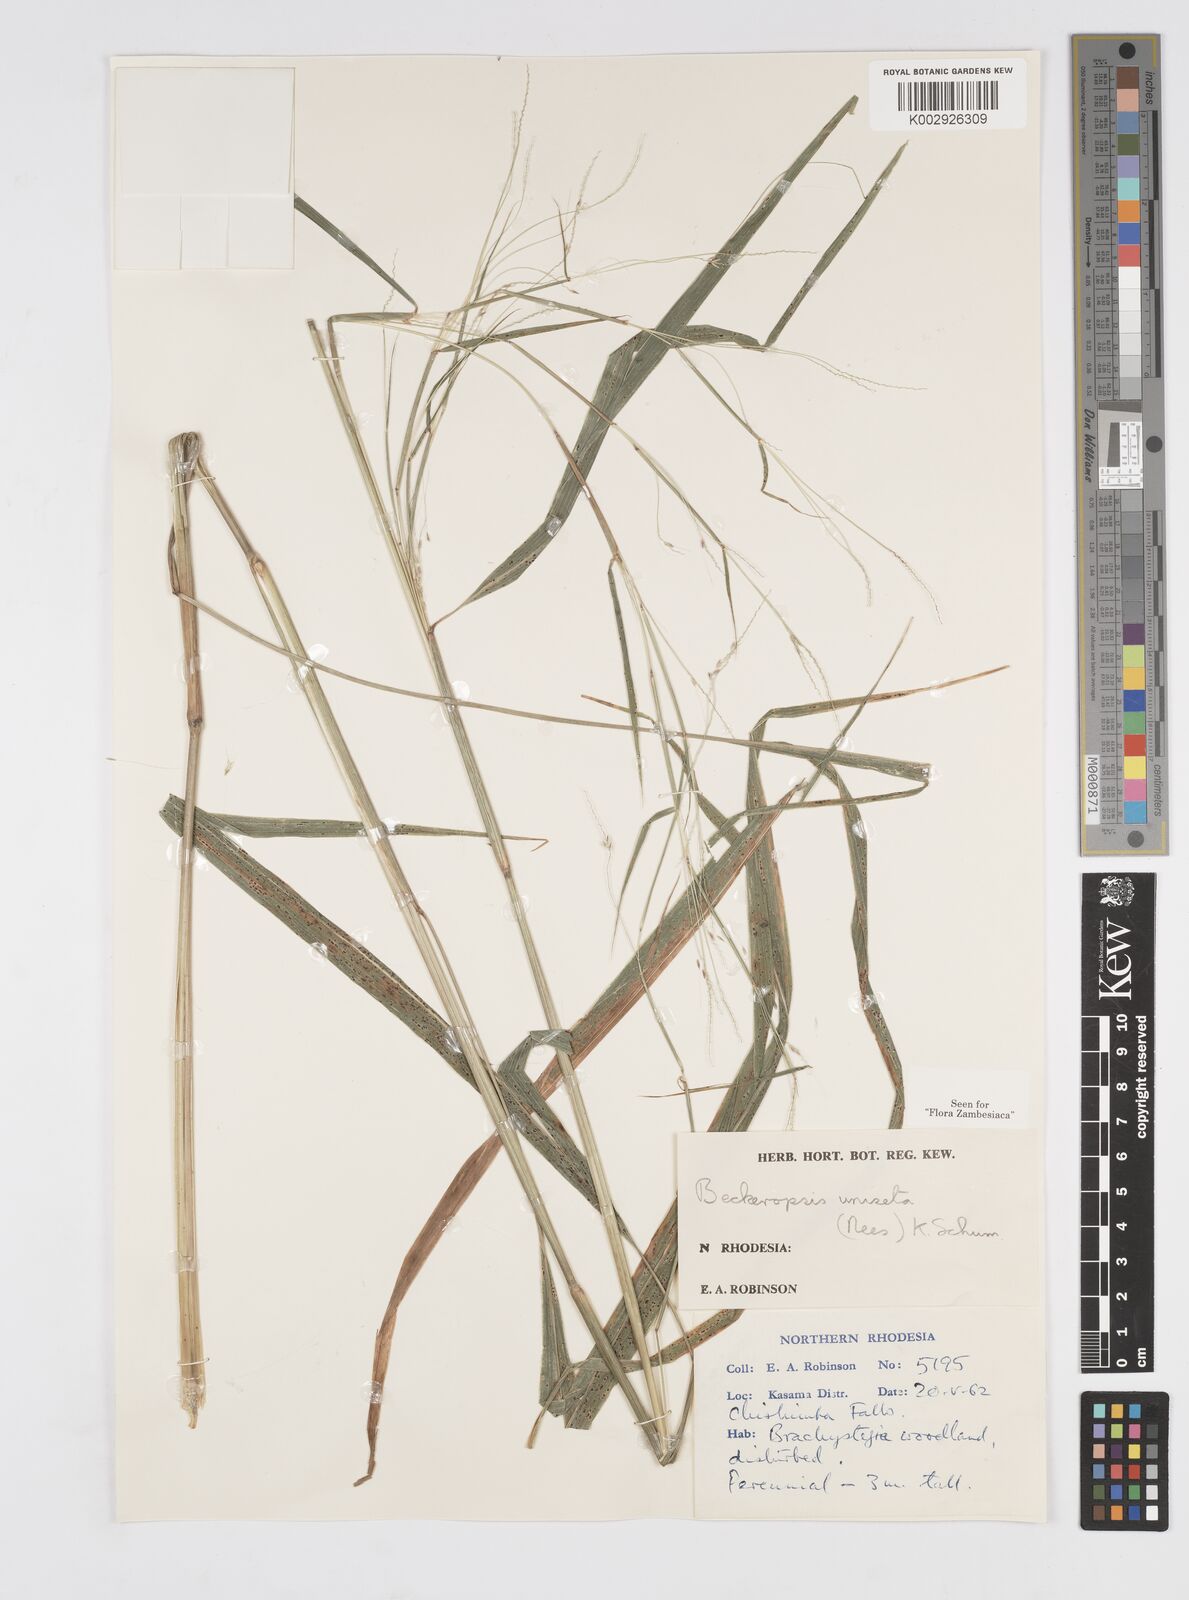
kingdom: Plantae
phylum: Tracheophyta
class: Liliopsida
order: Poales
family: Poaceae
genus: Cenchrus
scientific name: Cenchrus unisetus
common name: Natal grass
